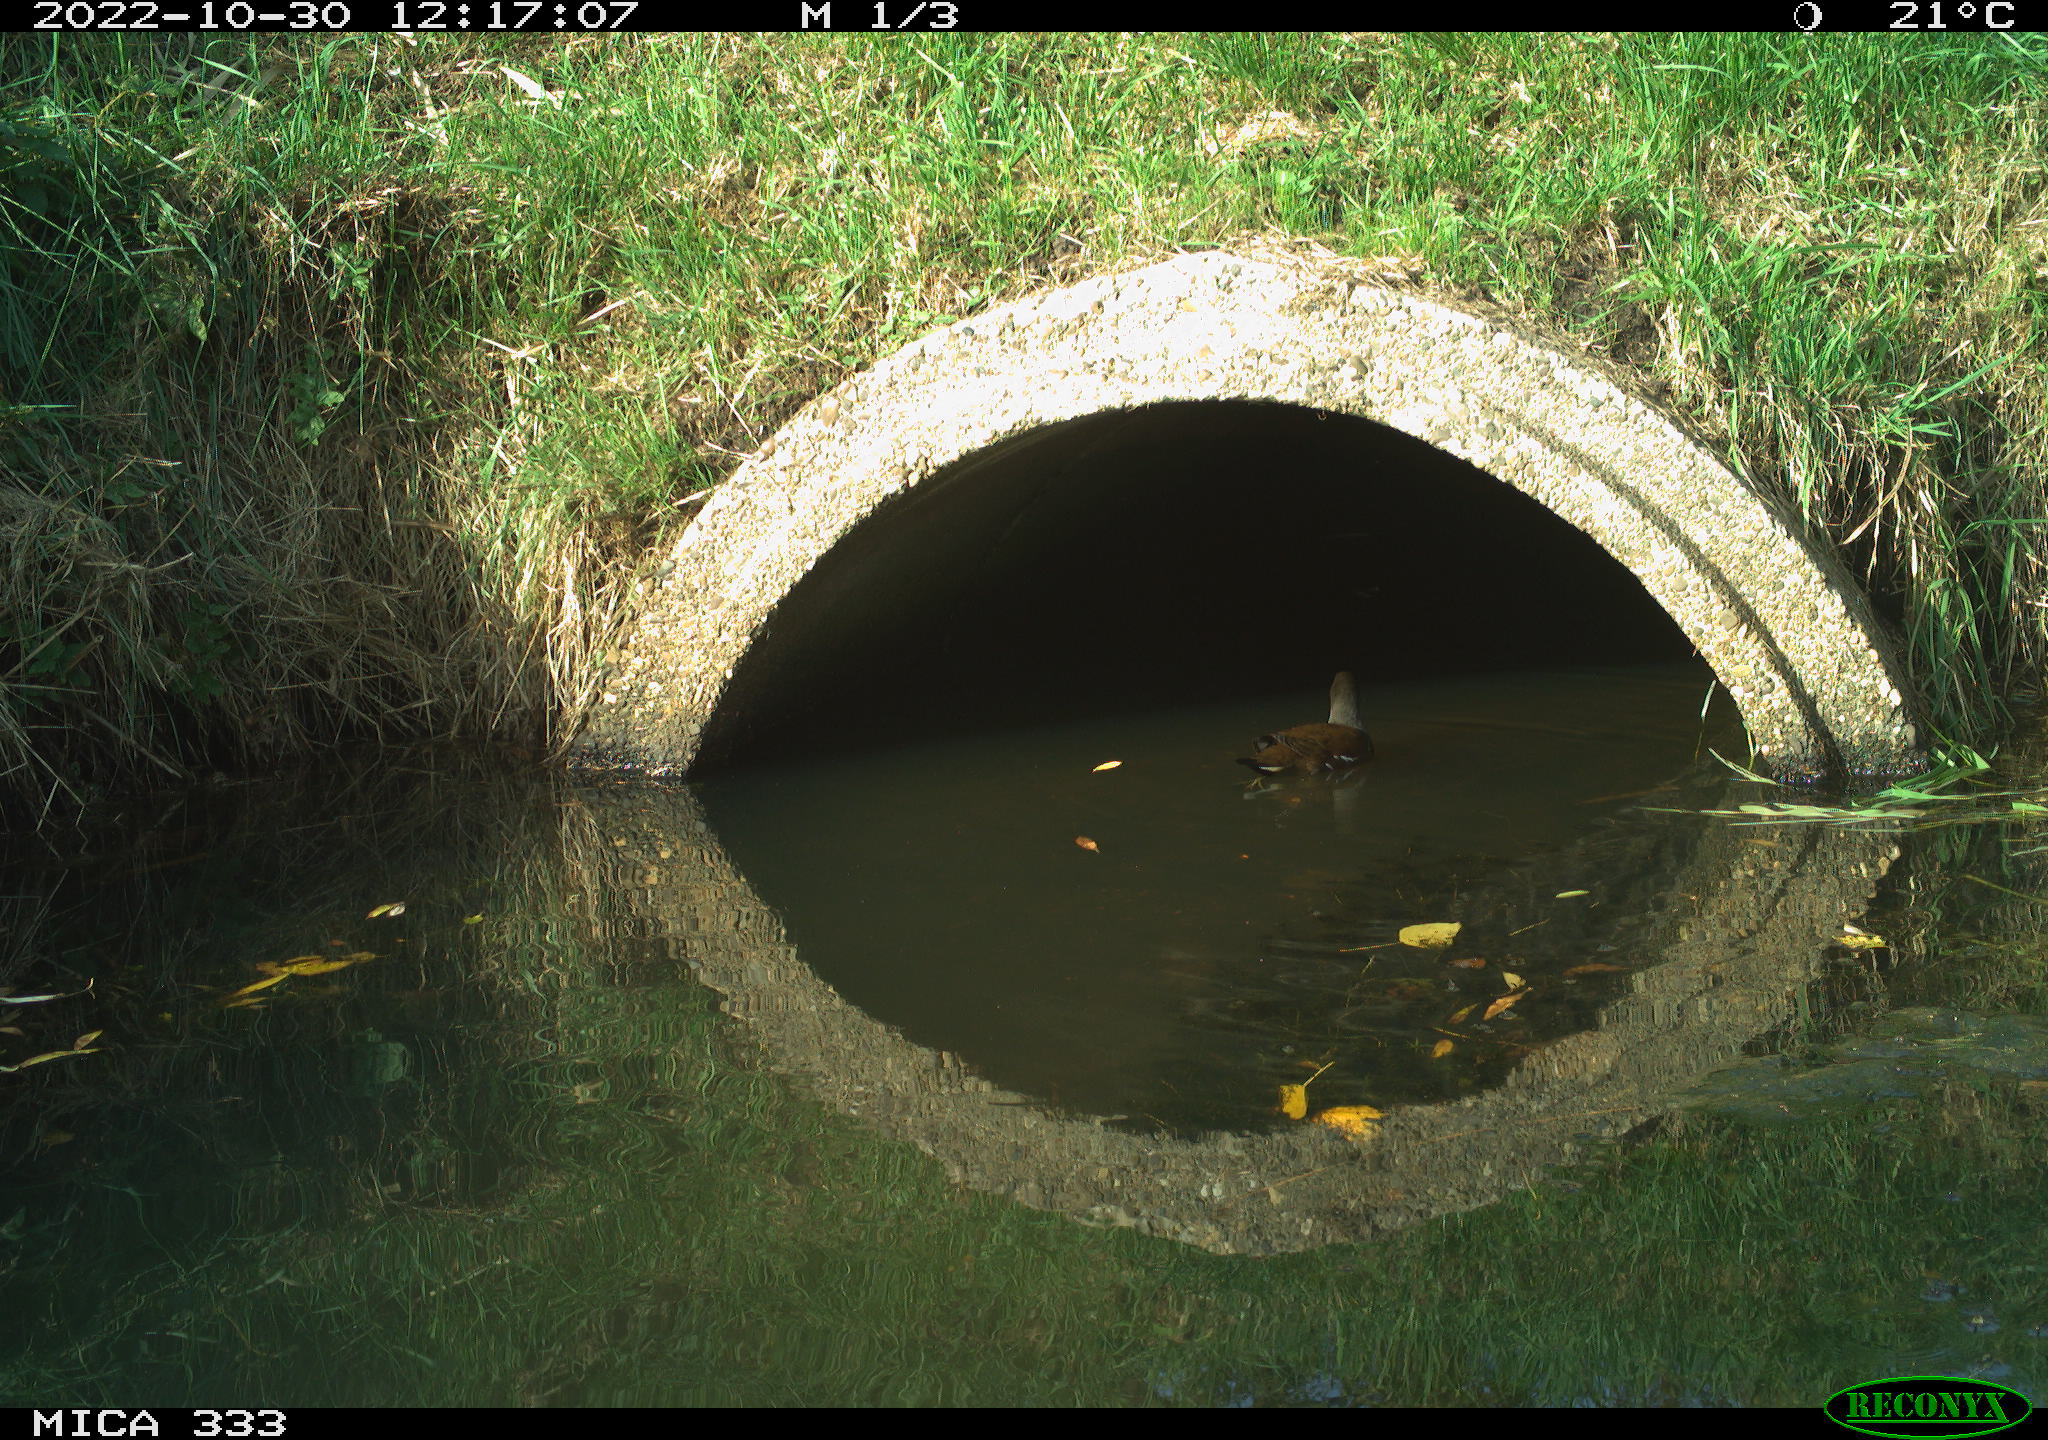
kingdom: Animalia
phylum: Chordata
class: Aves
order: Gruiformes
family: Rallidae
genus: Gallinula
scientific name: Gallinula chloropus
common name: Common moorhen
